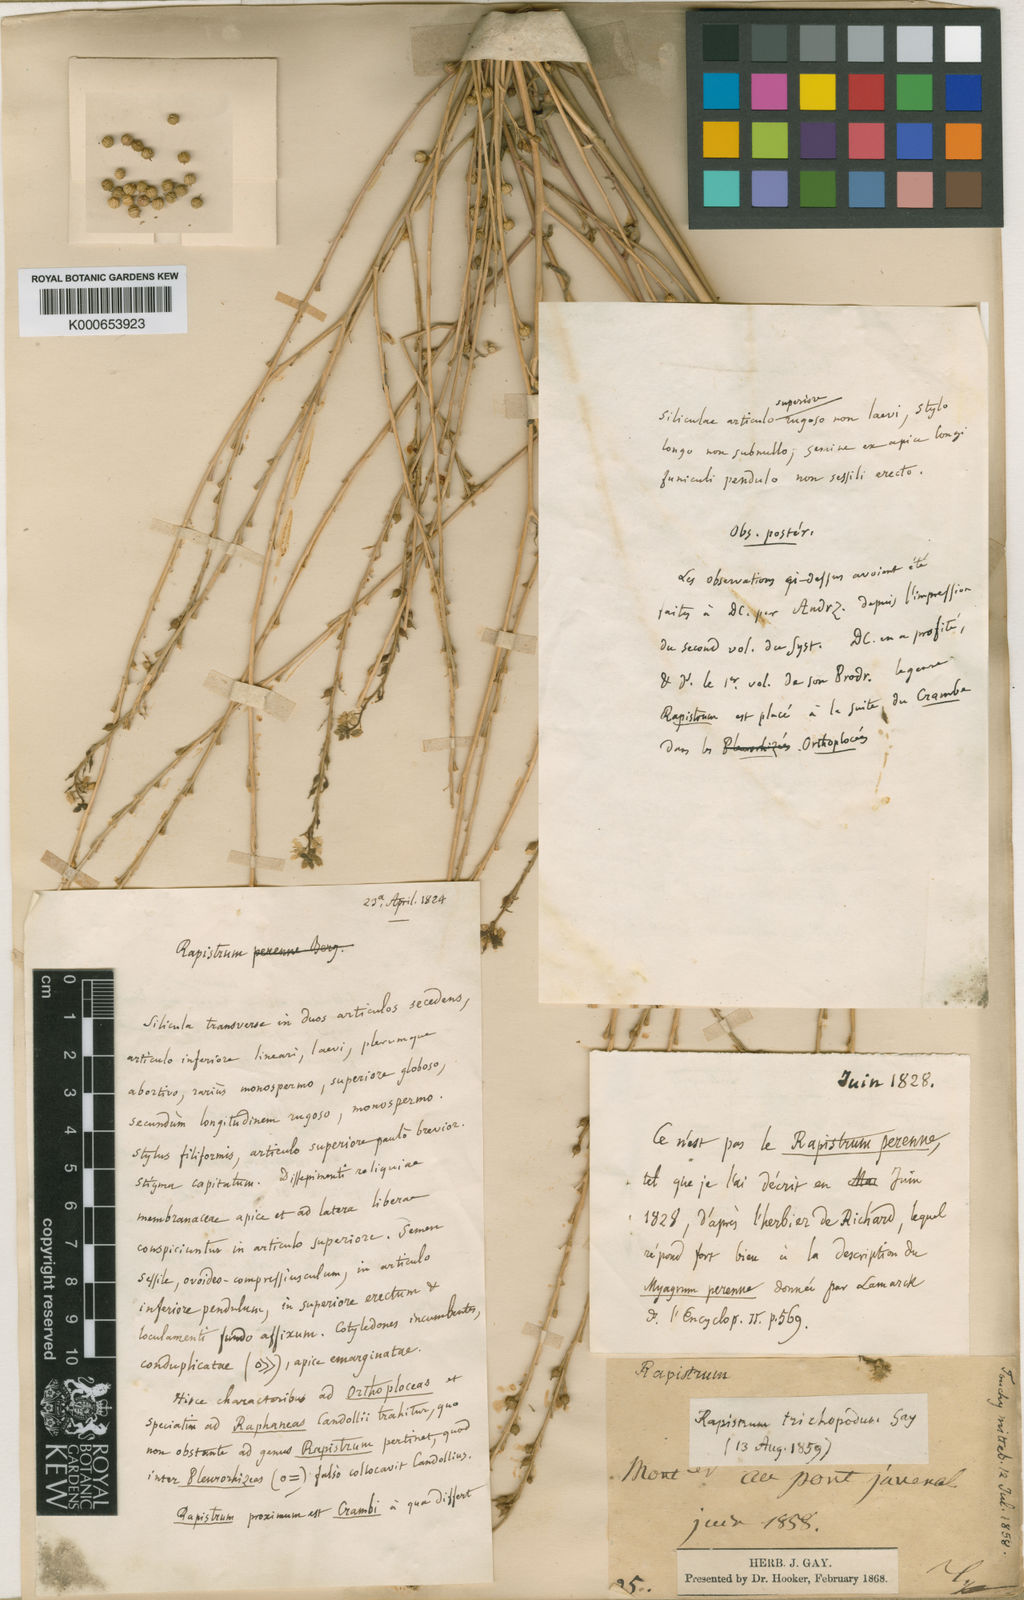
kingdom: Plantae
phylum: Tracheophyta
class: Magnoliopsida
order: Brassicales
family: Brassicaceae
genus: Rapistrum
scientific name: Rapistrum rugosum
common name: Annual bastardcabbage
